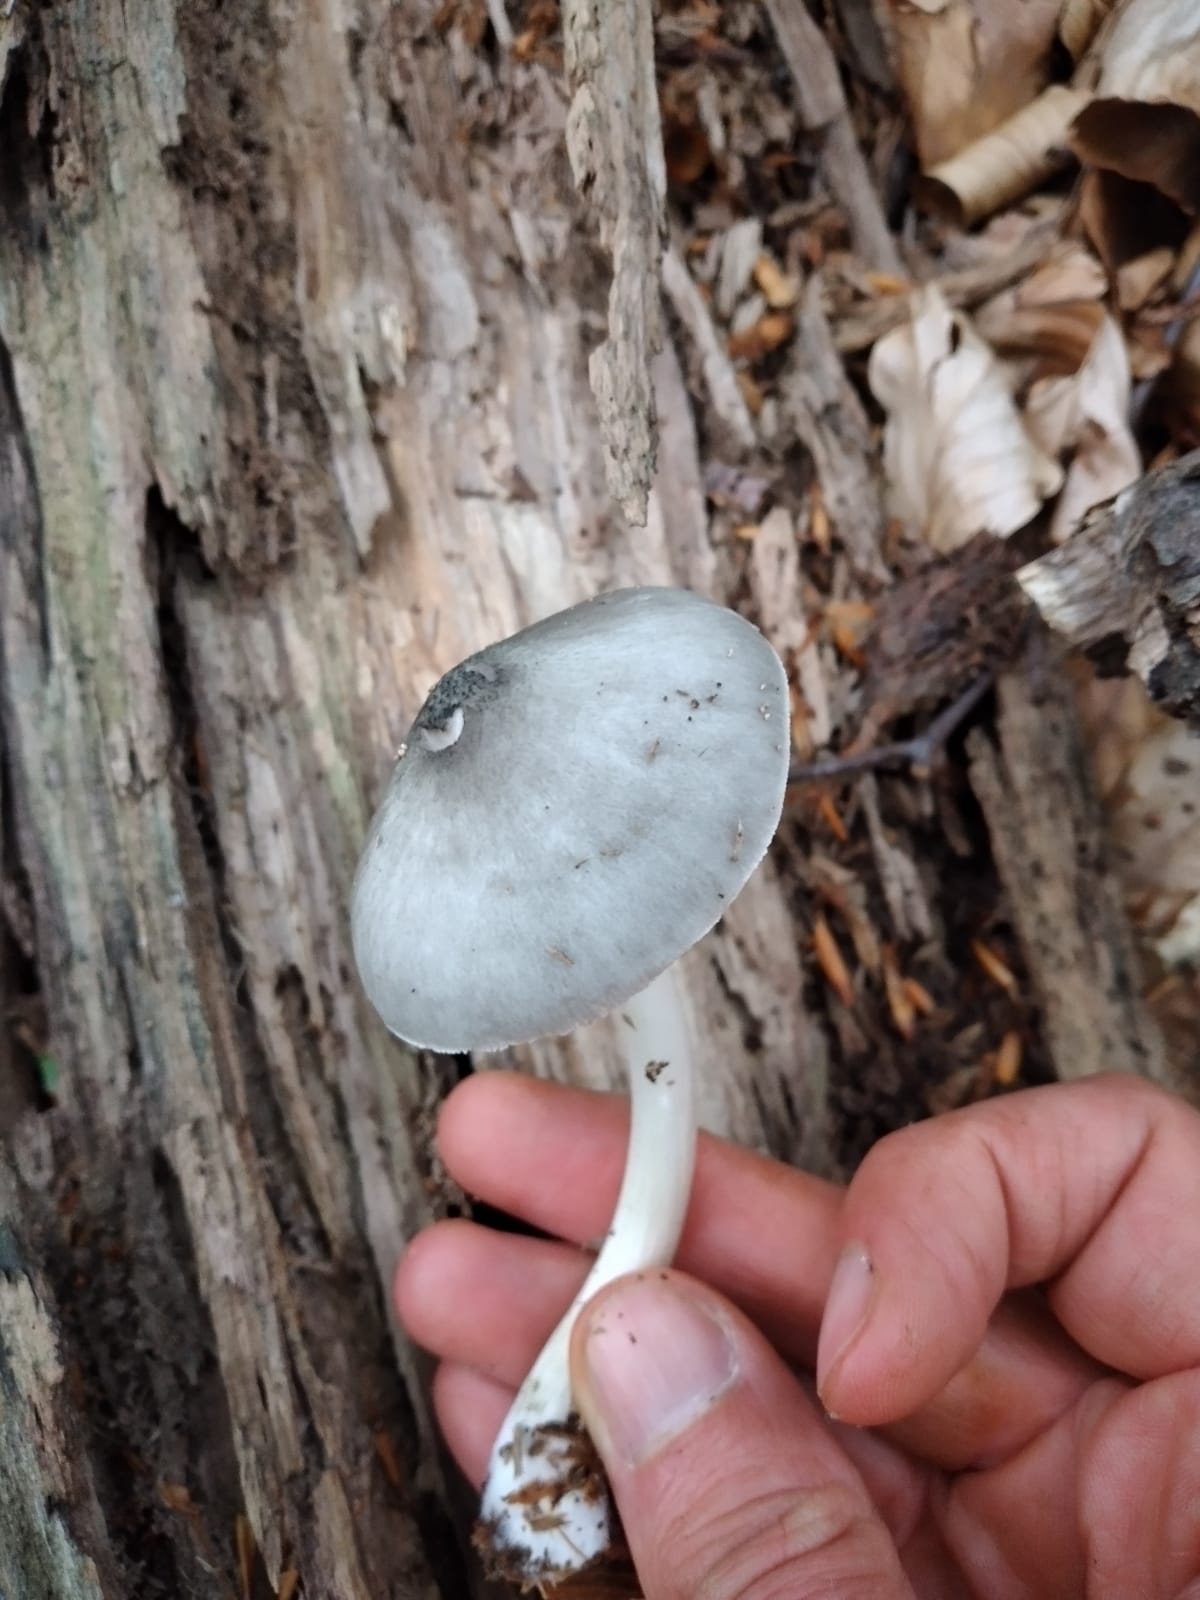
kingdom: Fungi
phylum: Basidiomycota
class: Agaricomycetes
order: Agaricales
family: Pluteaceae
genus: Pluteus
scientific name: Pluteus salicinus
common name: stiv skærmhat
